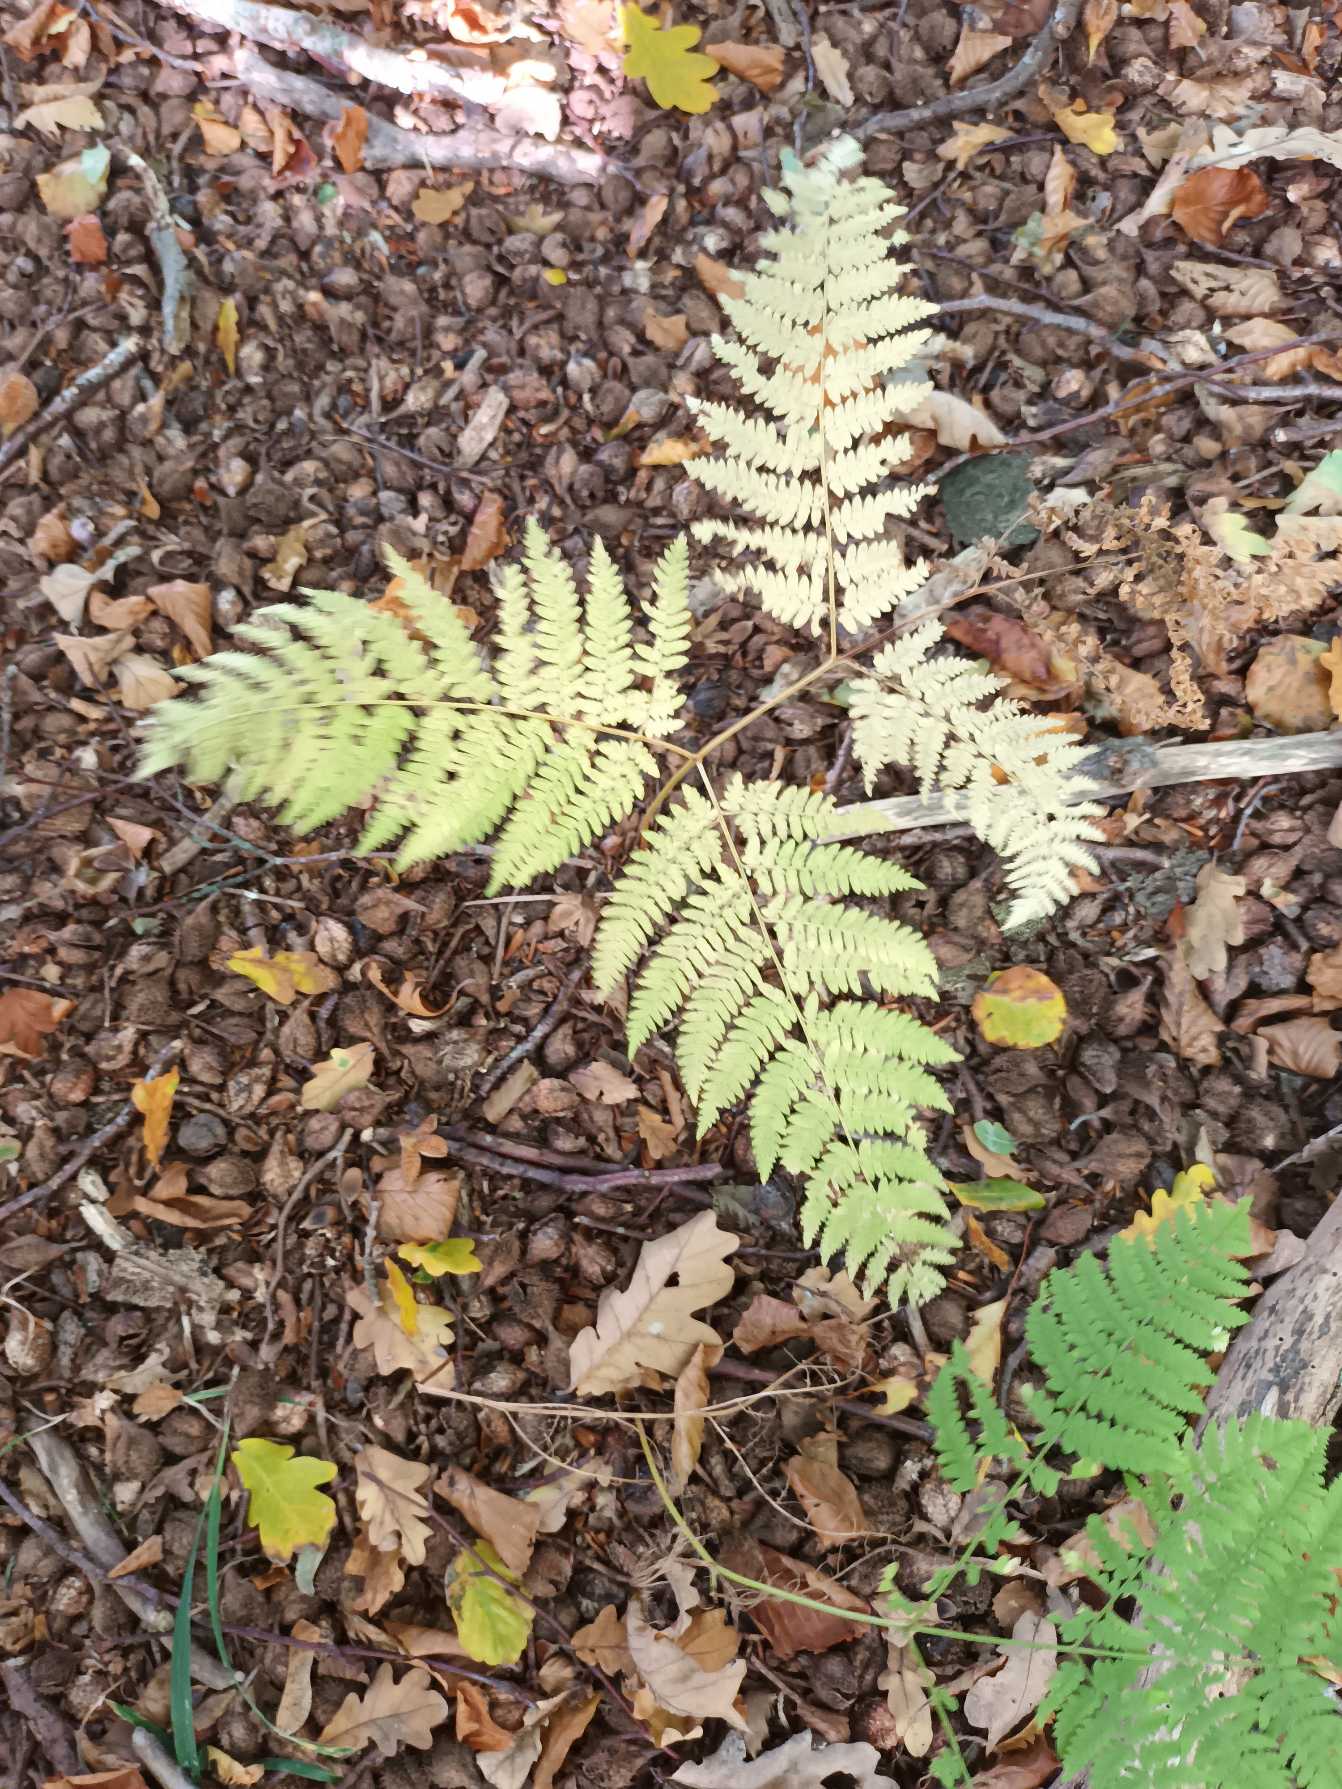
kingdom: Plantae
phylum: Tracheophyta
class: Polypodiopsida
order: Polypodiales
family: Dennstaedtiaceae
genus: Pteridium
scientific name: Pteridium aquilinum
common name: Ørnebregne
